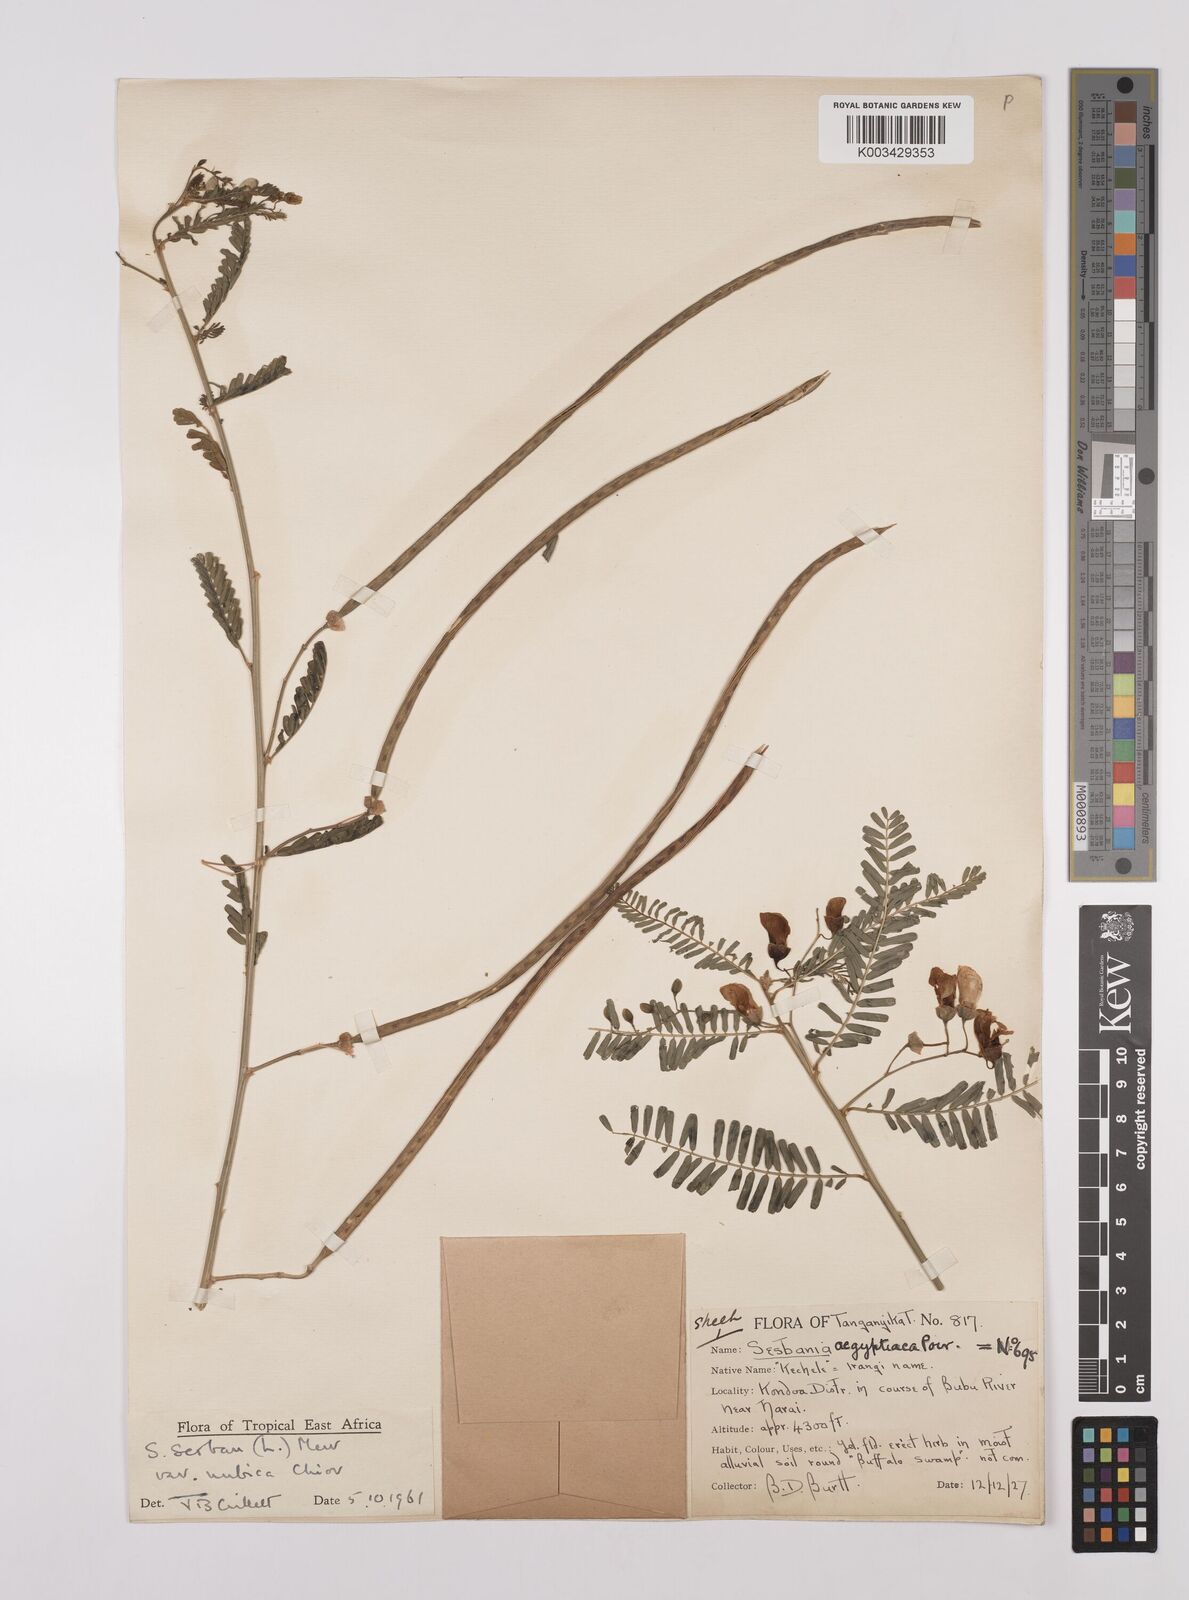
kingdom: Plantae
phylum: Tracheophyta
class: Magnoliopsida
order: Fabales
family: Fabaceae
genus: Sesbania
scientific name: Sesbania sesban
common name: Egyptian sesban
